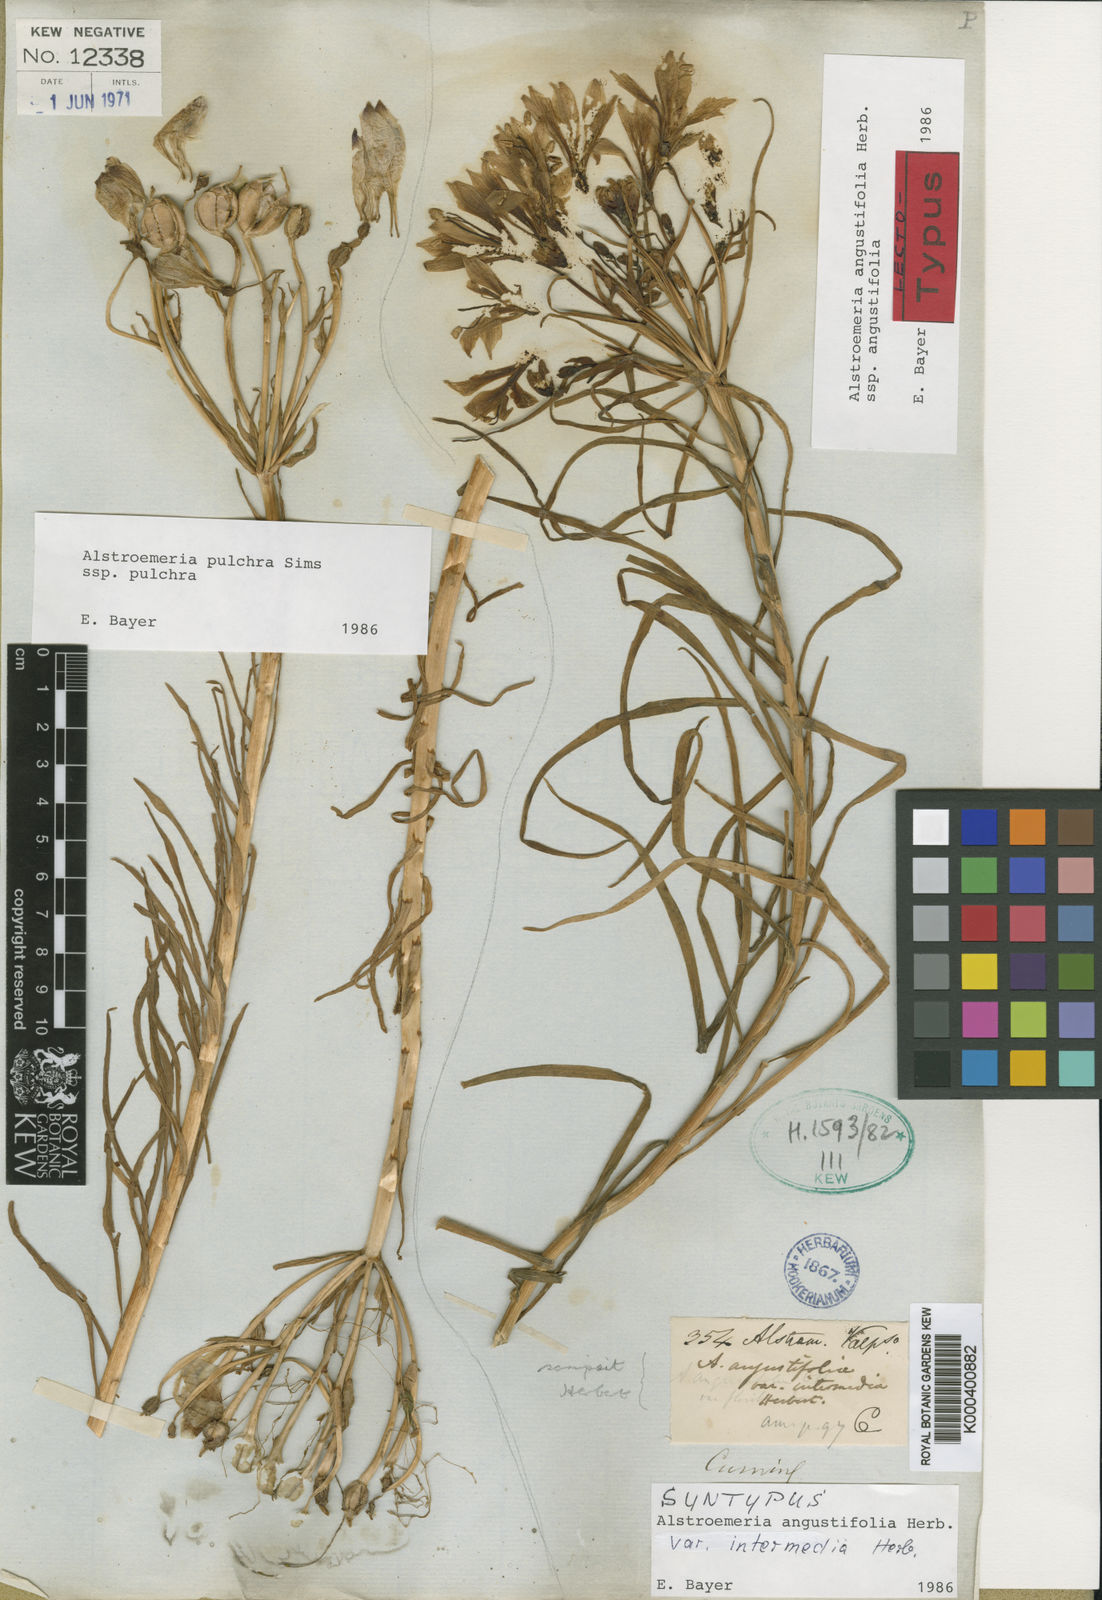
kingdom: Plantae
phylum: Tracheophyta
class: Liliopsida
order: Liliales
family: Alstroemeriaceae
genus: Alstroemeria
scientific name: Alstroemeria angustifolia
